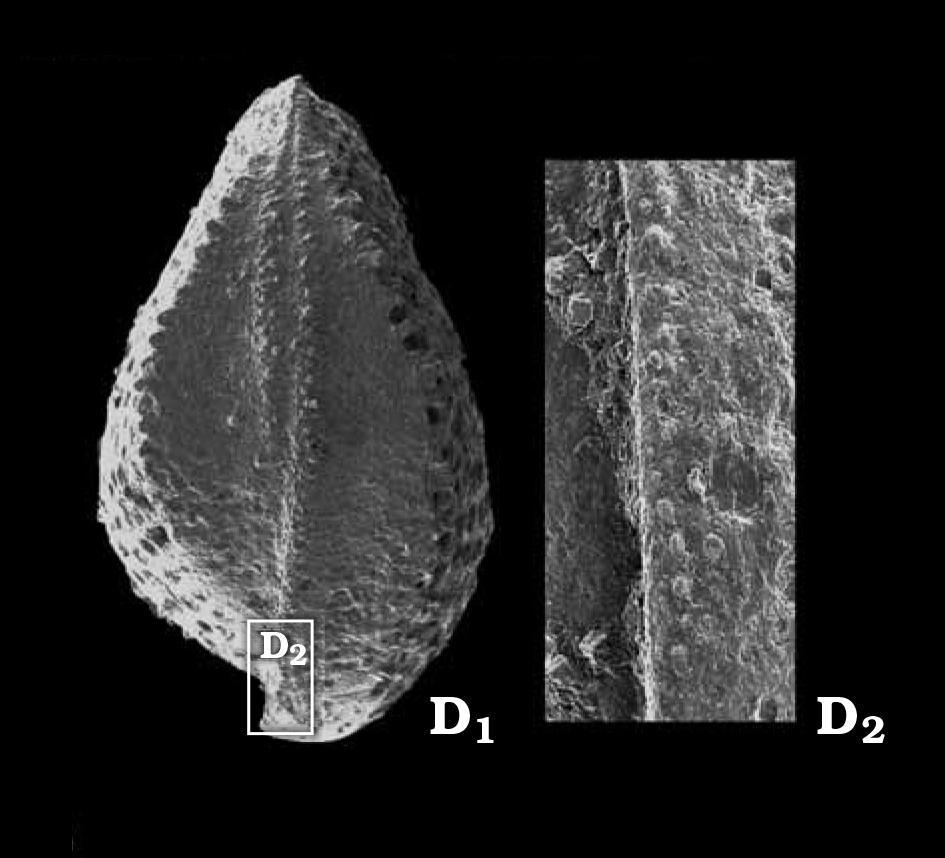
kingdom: Animalia
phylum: Arthropoda
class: Ostracoda
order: Palaeocopida
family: Oepikellidae
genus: Lavachilina
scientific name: Lavachilina evae
